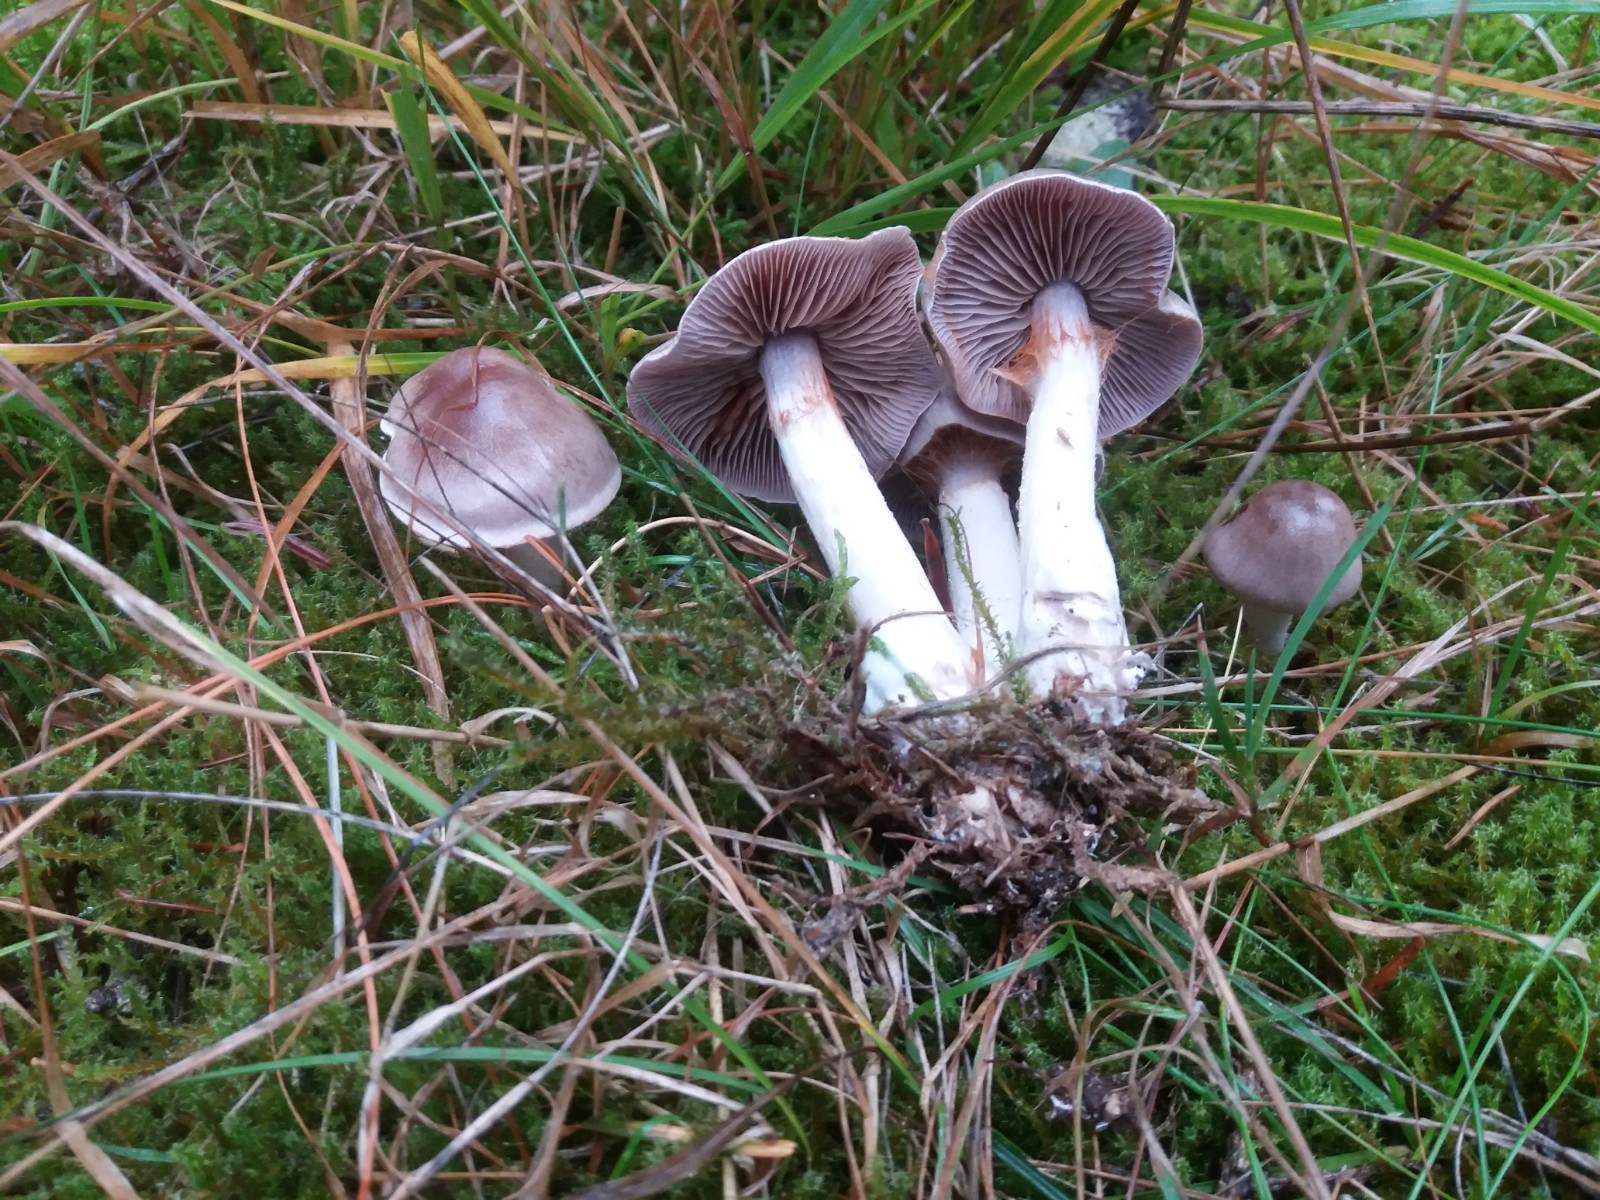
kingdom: Fungi
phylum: Basidiomycota
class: Agaricomycetes
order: Agaricales
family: Cortinariaceae
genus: Cortinarius
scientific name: Cortinarius anomalus
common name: Variable webcap
